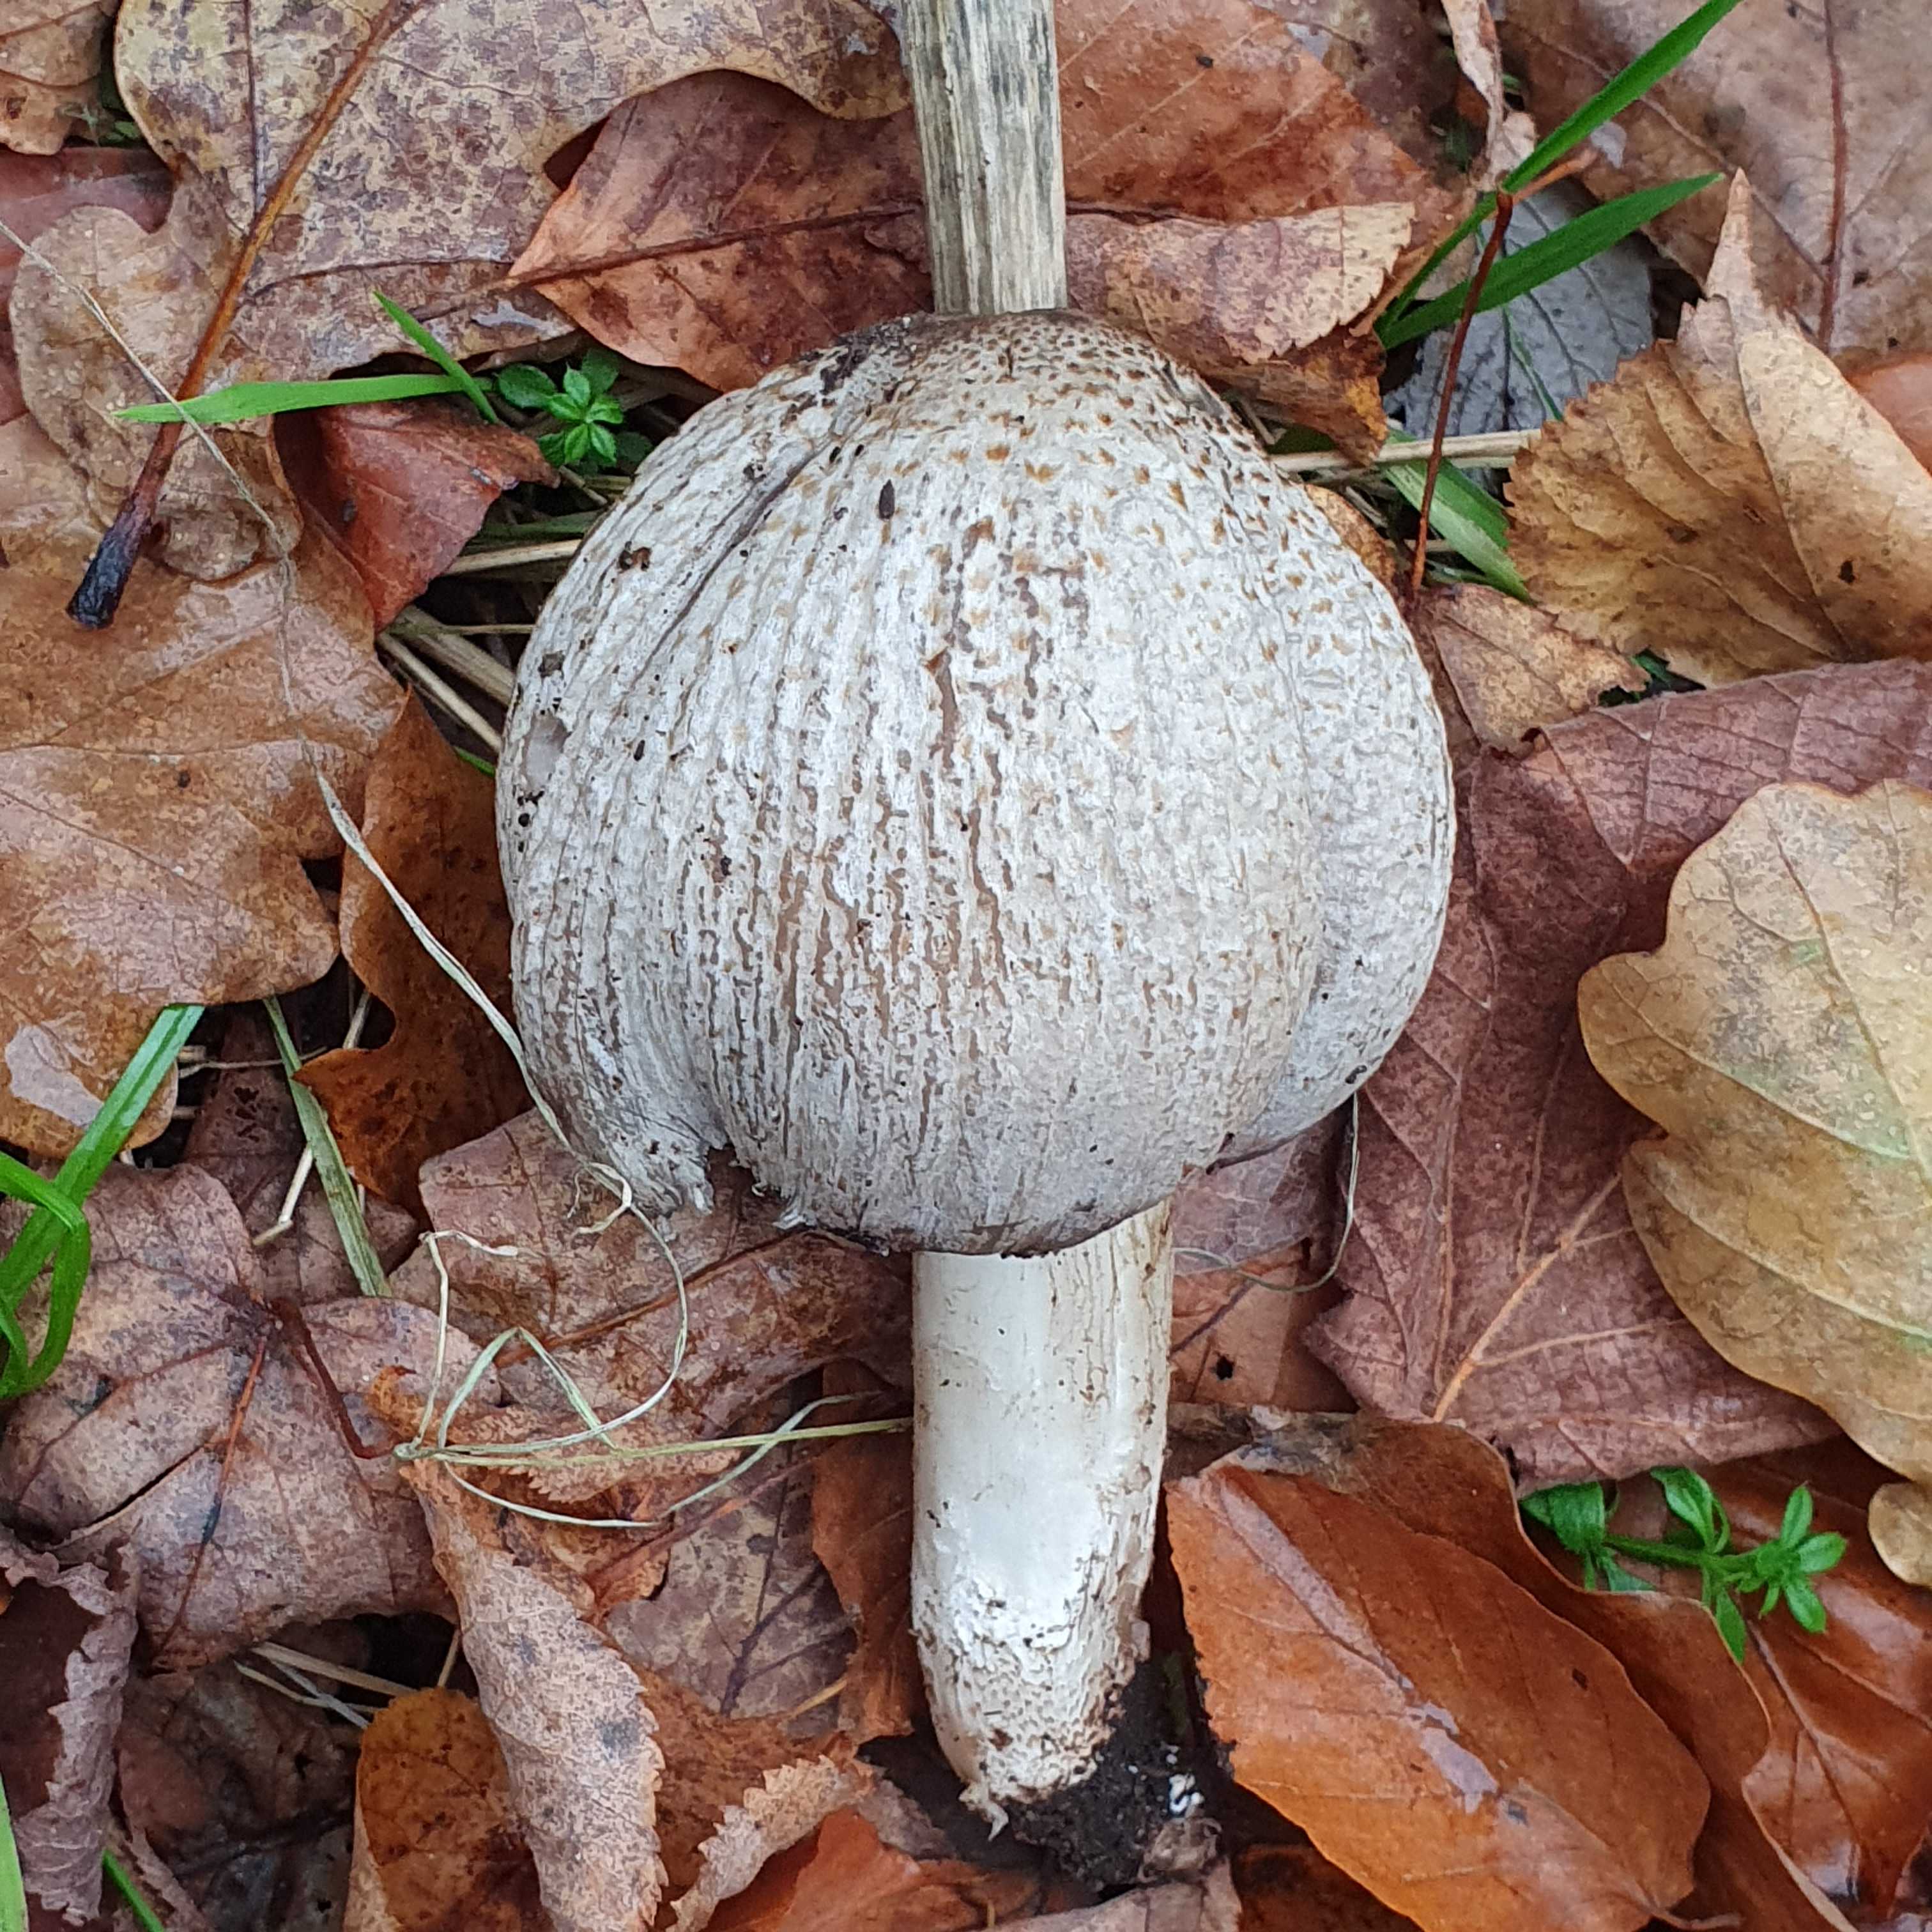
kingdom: Fungi
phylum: Basidiomycota
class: Agaricomycetes
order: Agaricales
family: Psathyrellaceae
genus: Coprinopsis
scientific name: Coprinopsis atramentaria
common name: almindelig blækhat
